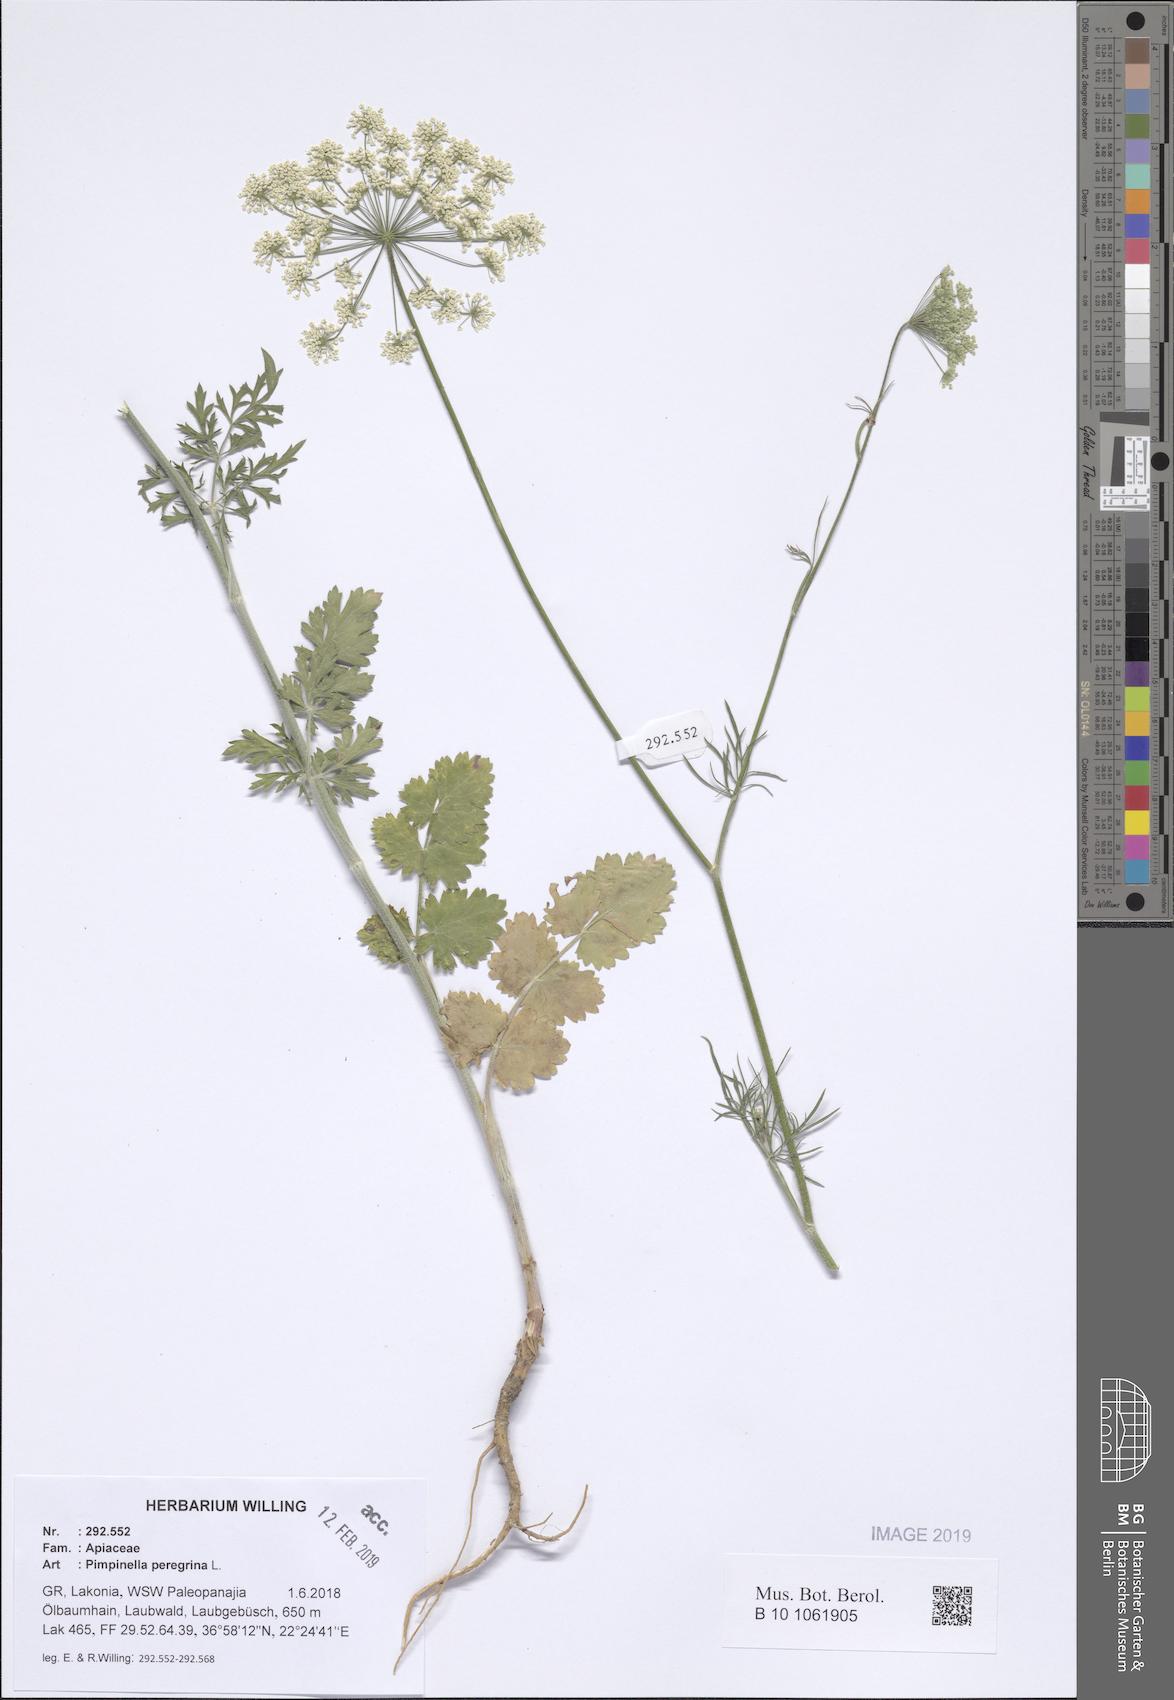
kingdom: Plantae
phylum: Tracheophyta
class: Magnoliopsida
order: Apiales
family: Apiaceae
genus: Pimpinella
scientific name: Pimpinella peregrina
